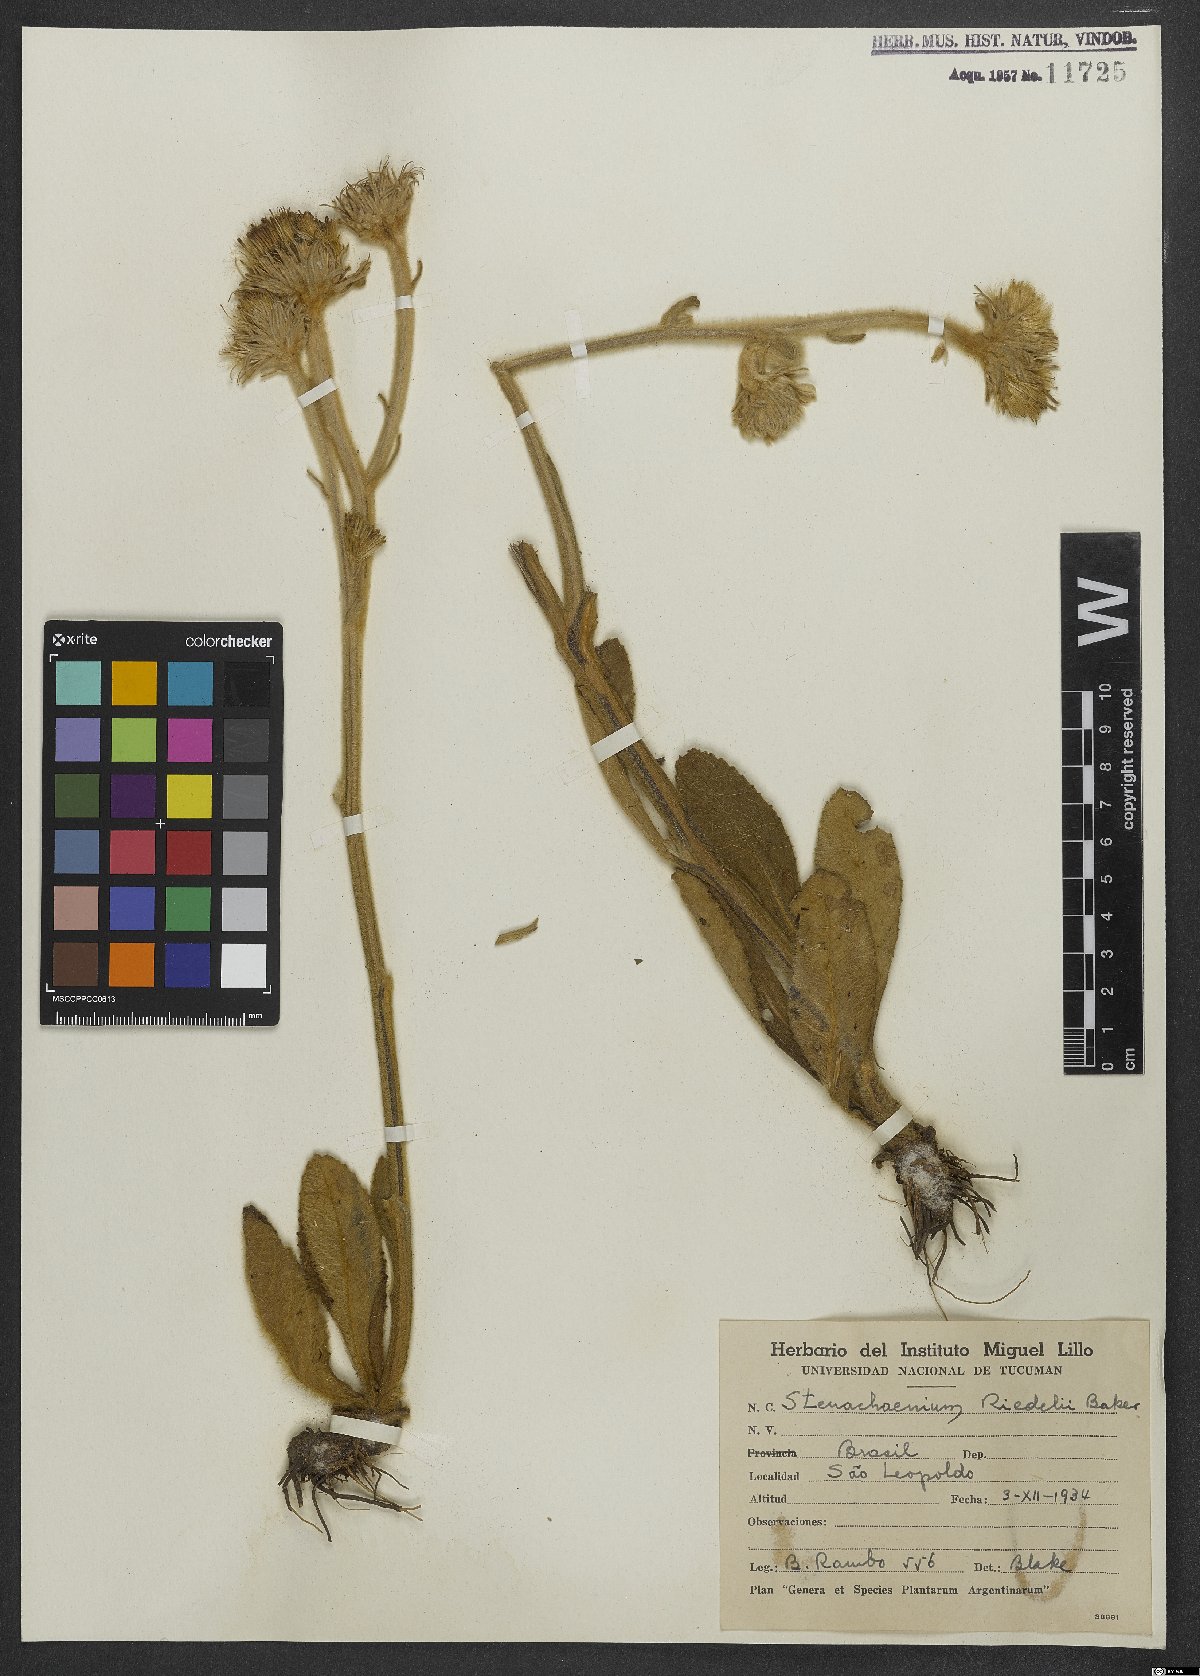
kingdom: Plantae
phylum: Tracheophyta
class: Magnoliopsida
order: Asterales
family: Asteraceae
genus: Stenachaenium
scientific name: Stenachaenium riedelii
